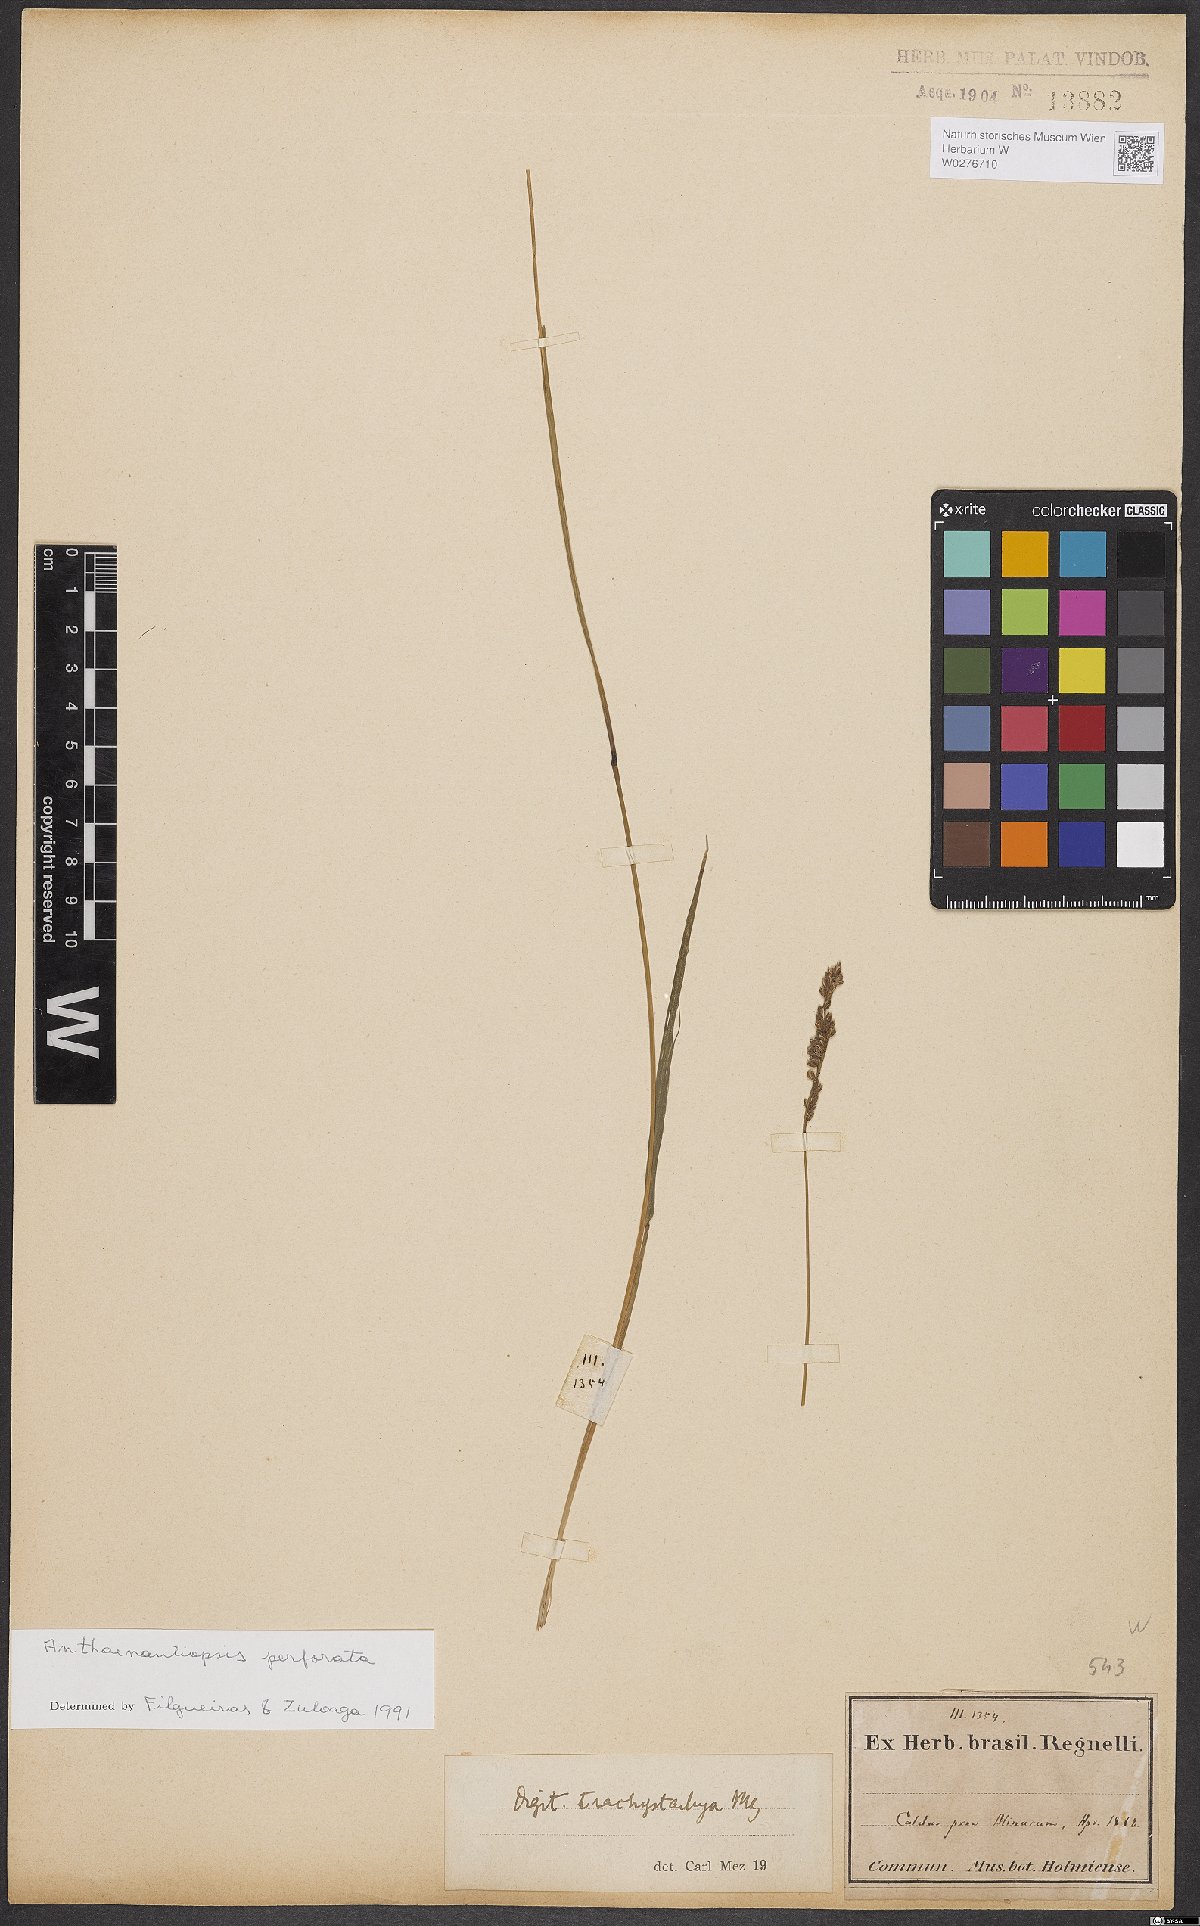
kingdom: Plantae
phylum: Tracheophyta
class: Liliopsida
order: Poales
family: Poaceae
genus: Anthaenantiopsis
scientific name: Anthaenantiopsis perforata
